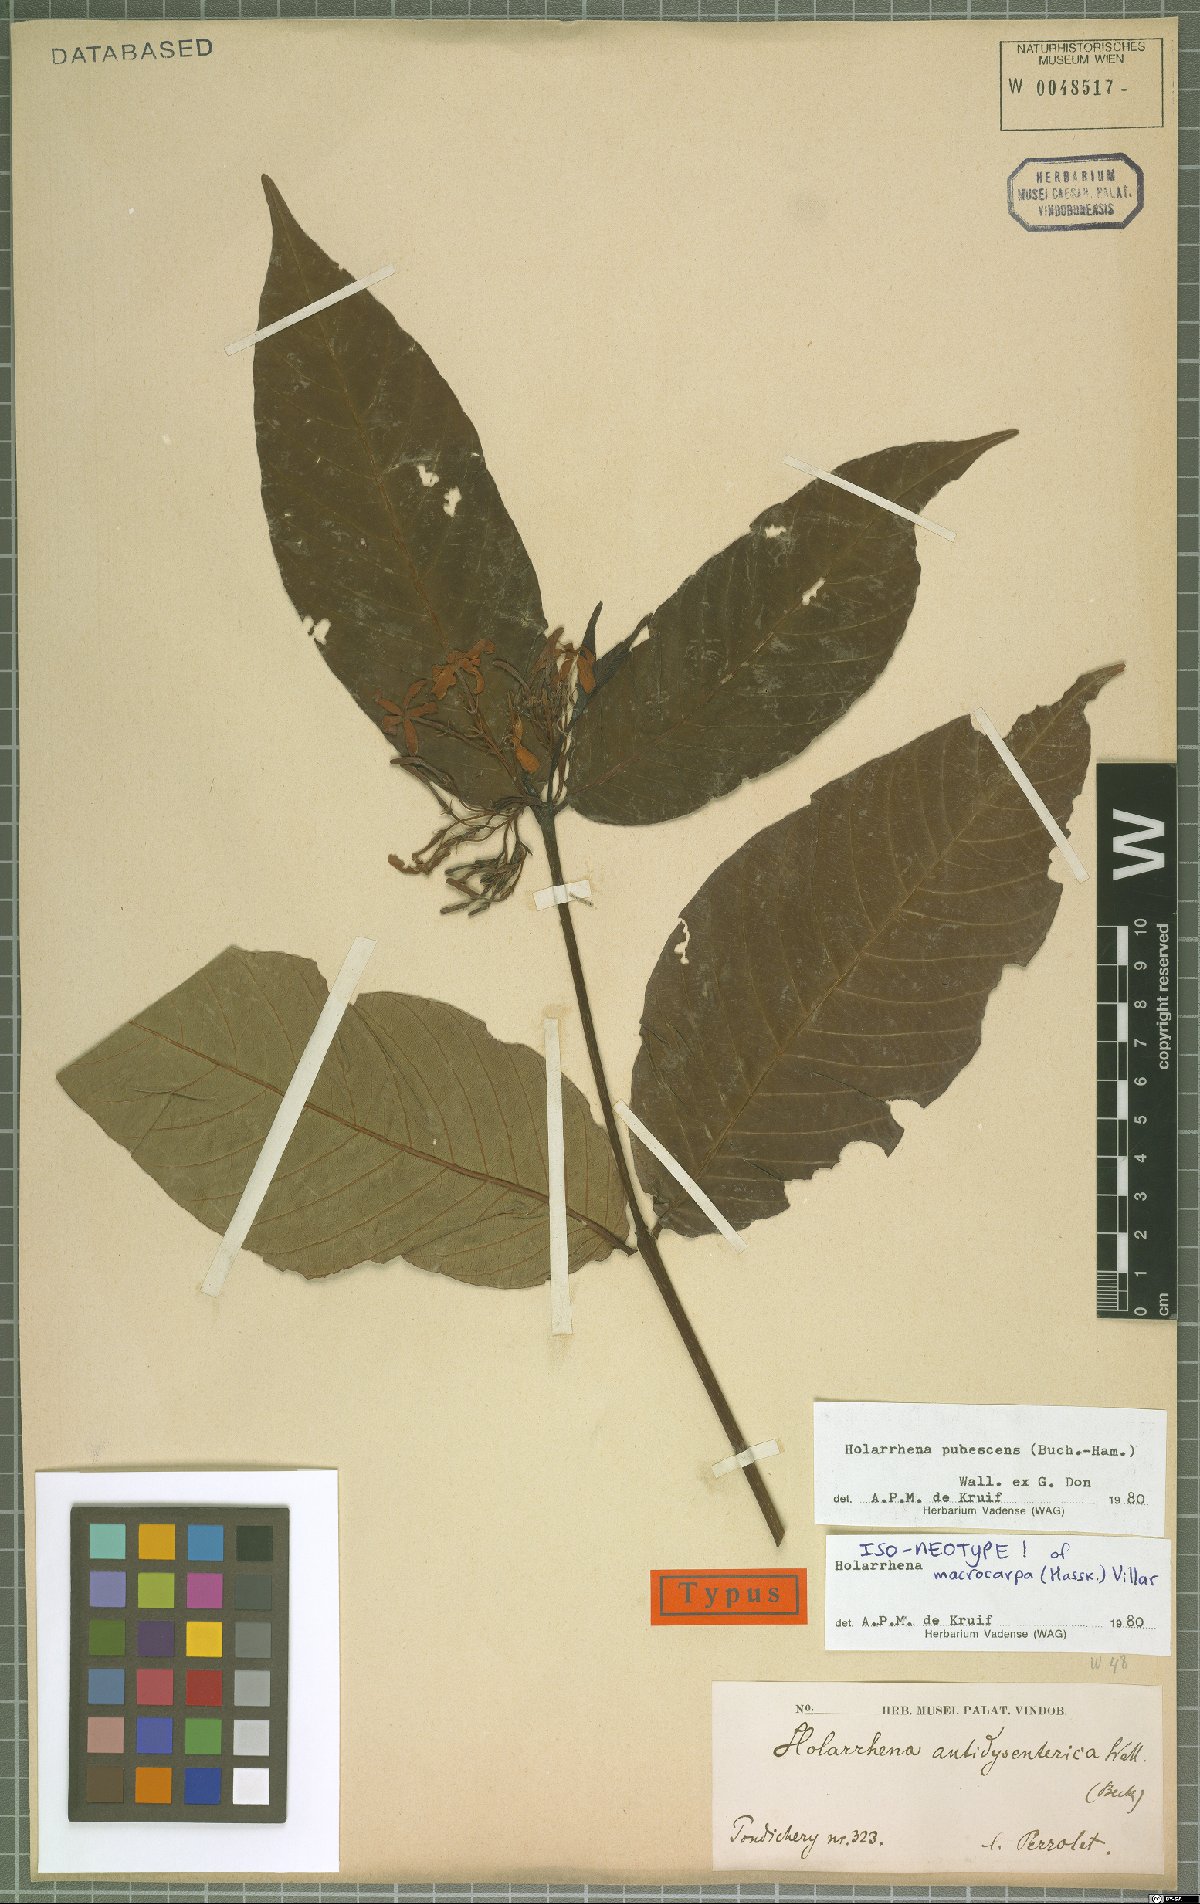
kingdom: Plantae
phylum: Tracheophyta
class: Magnoliopsida
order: Gentianales
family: Apocynaceae
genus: Holarrhena
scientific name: Holarrhena pubescens
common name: Bitter oleander
